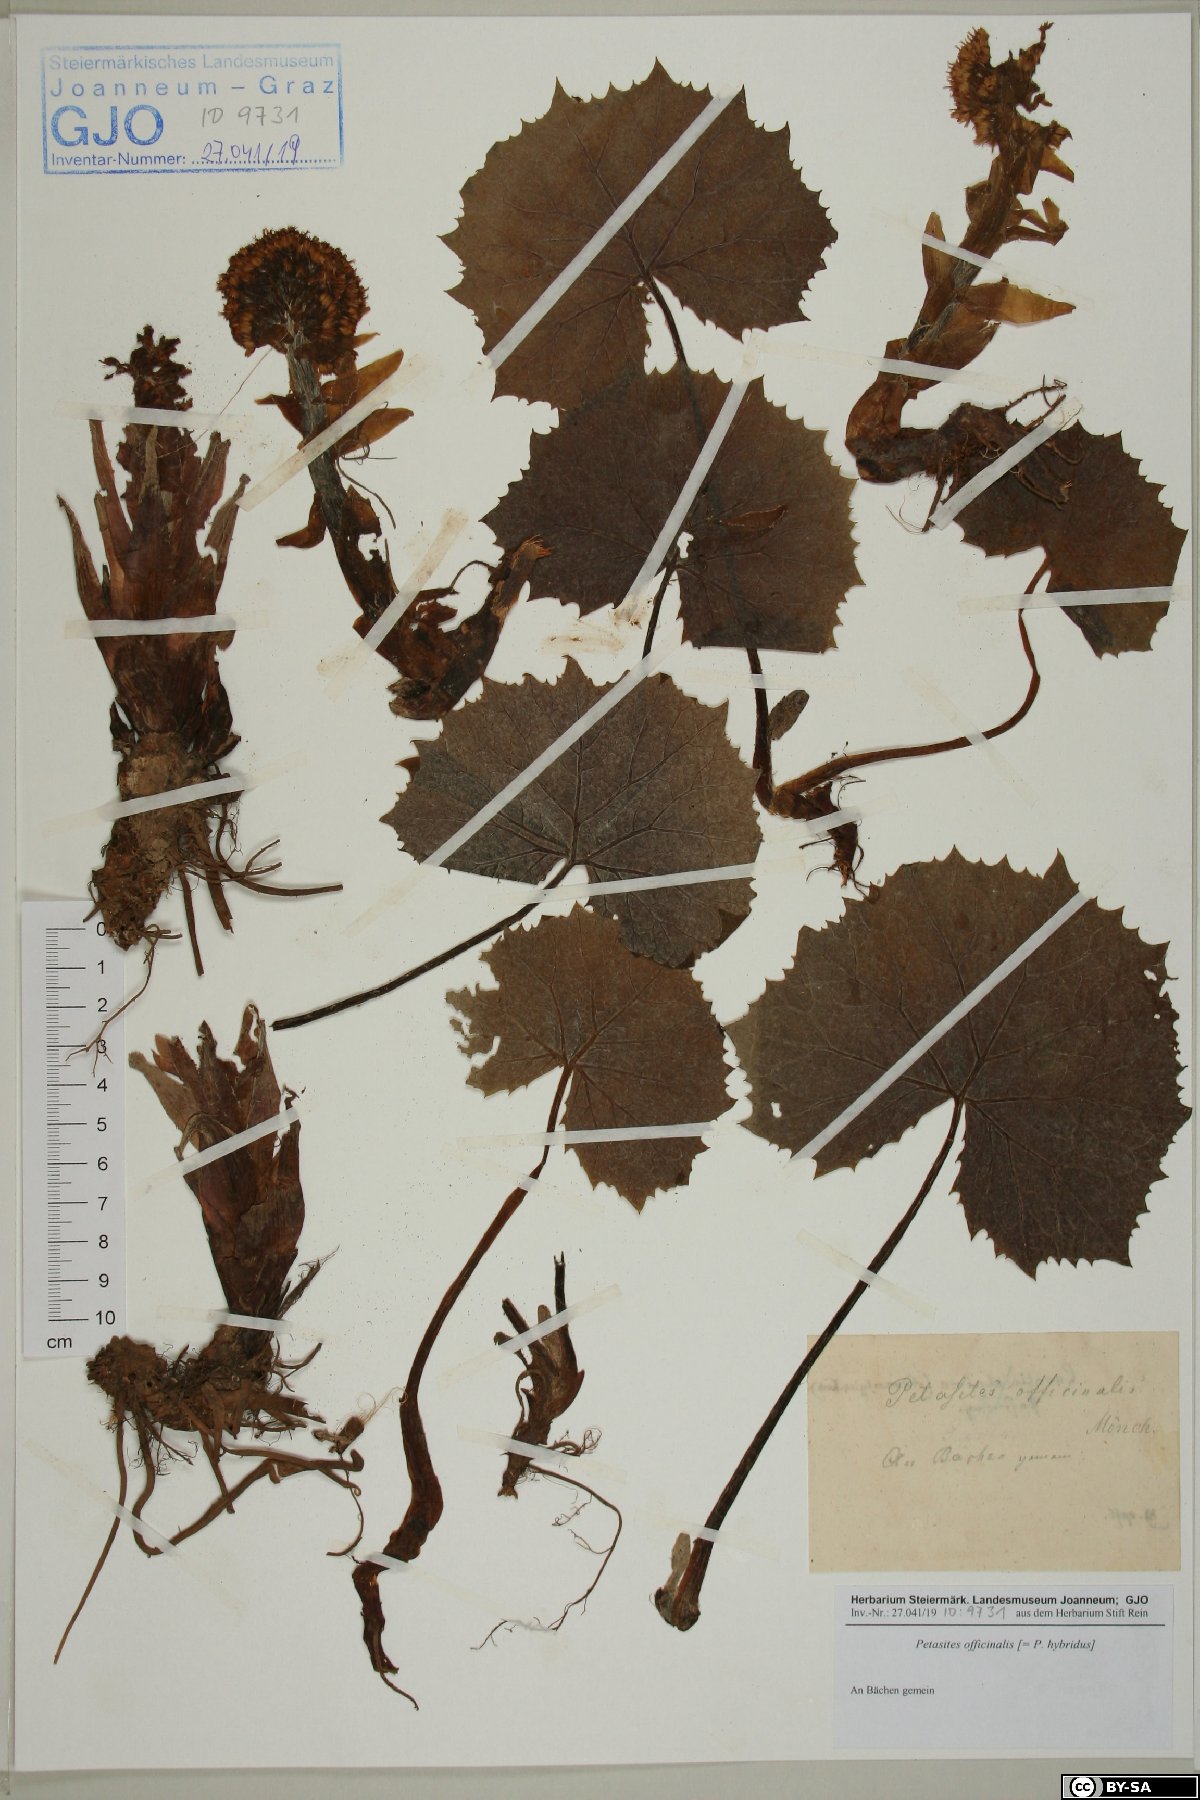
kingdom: Plantae
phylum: Tracheophyta
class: Magnoliopsida
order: Asterales
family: Asteraceae
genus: Petasites
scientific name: Petasites hybridus
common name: Butterbur
